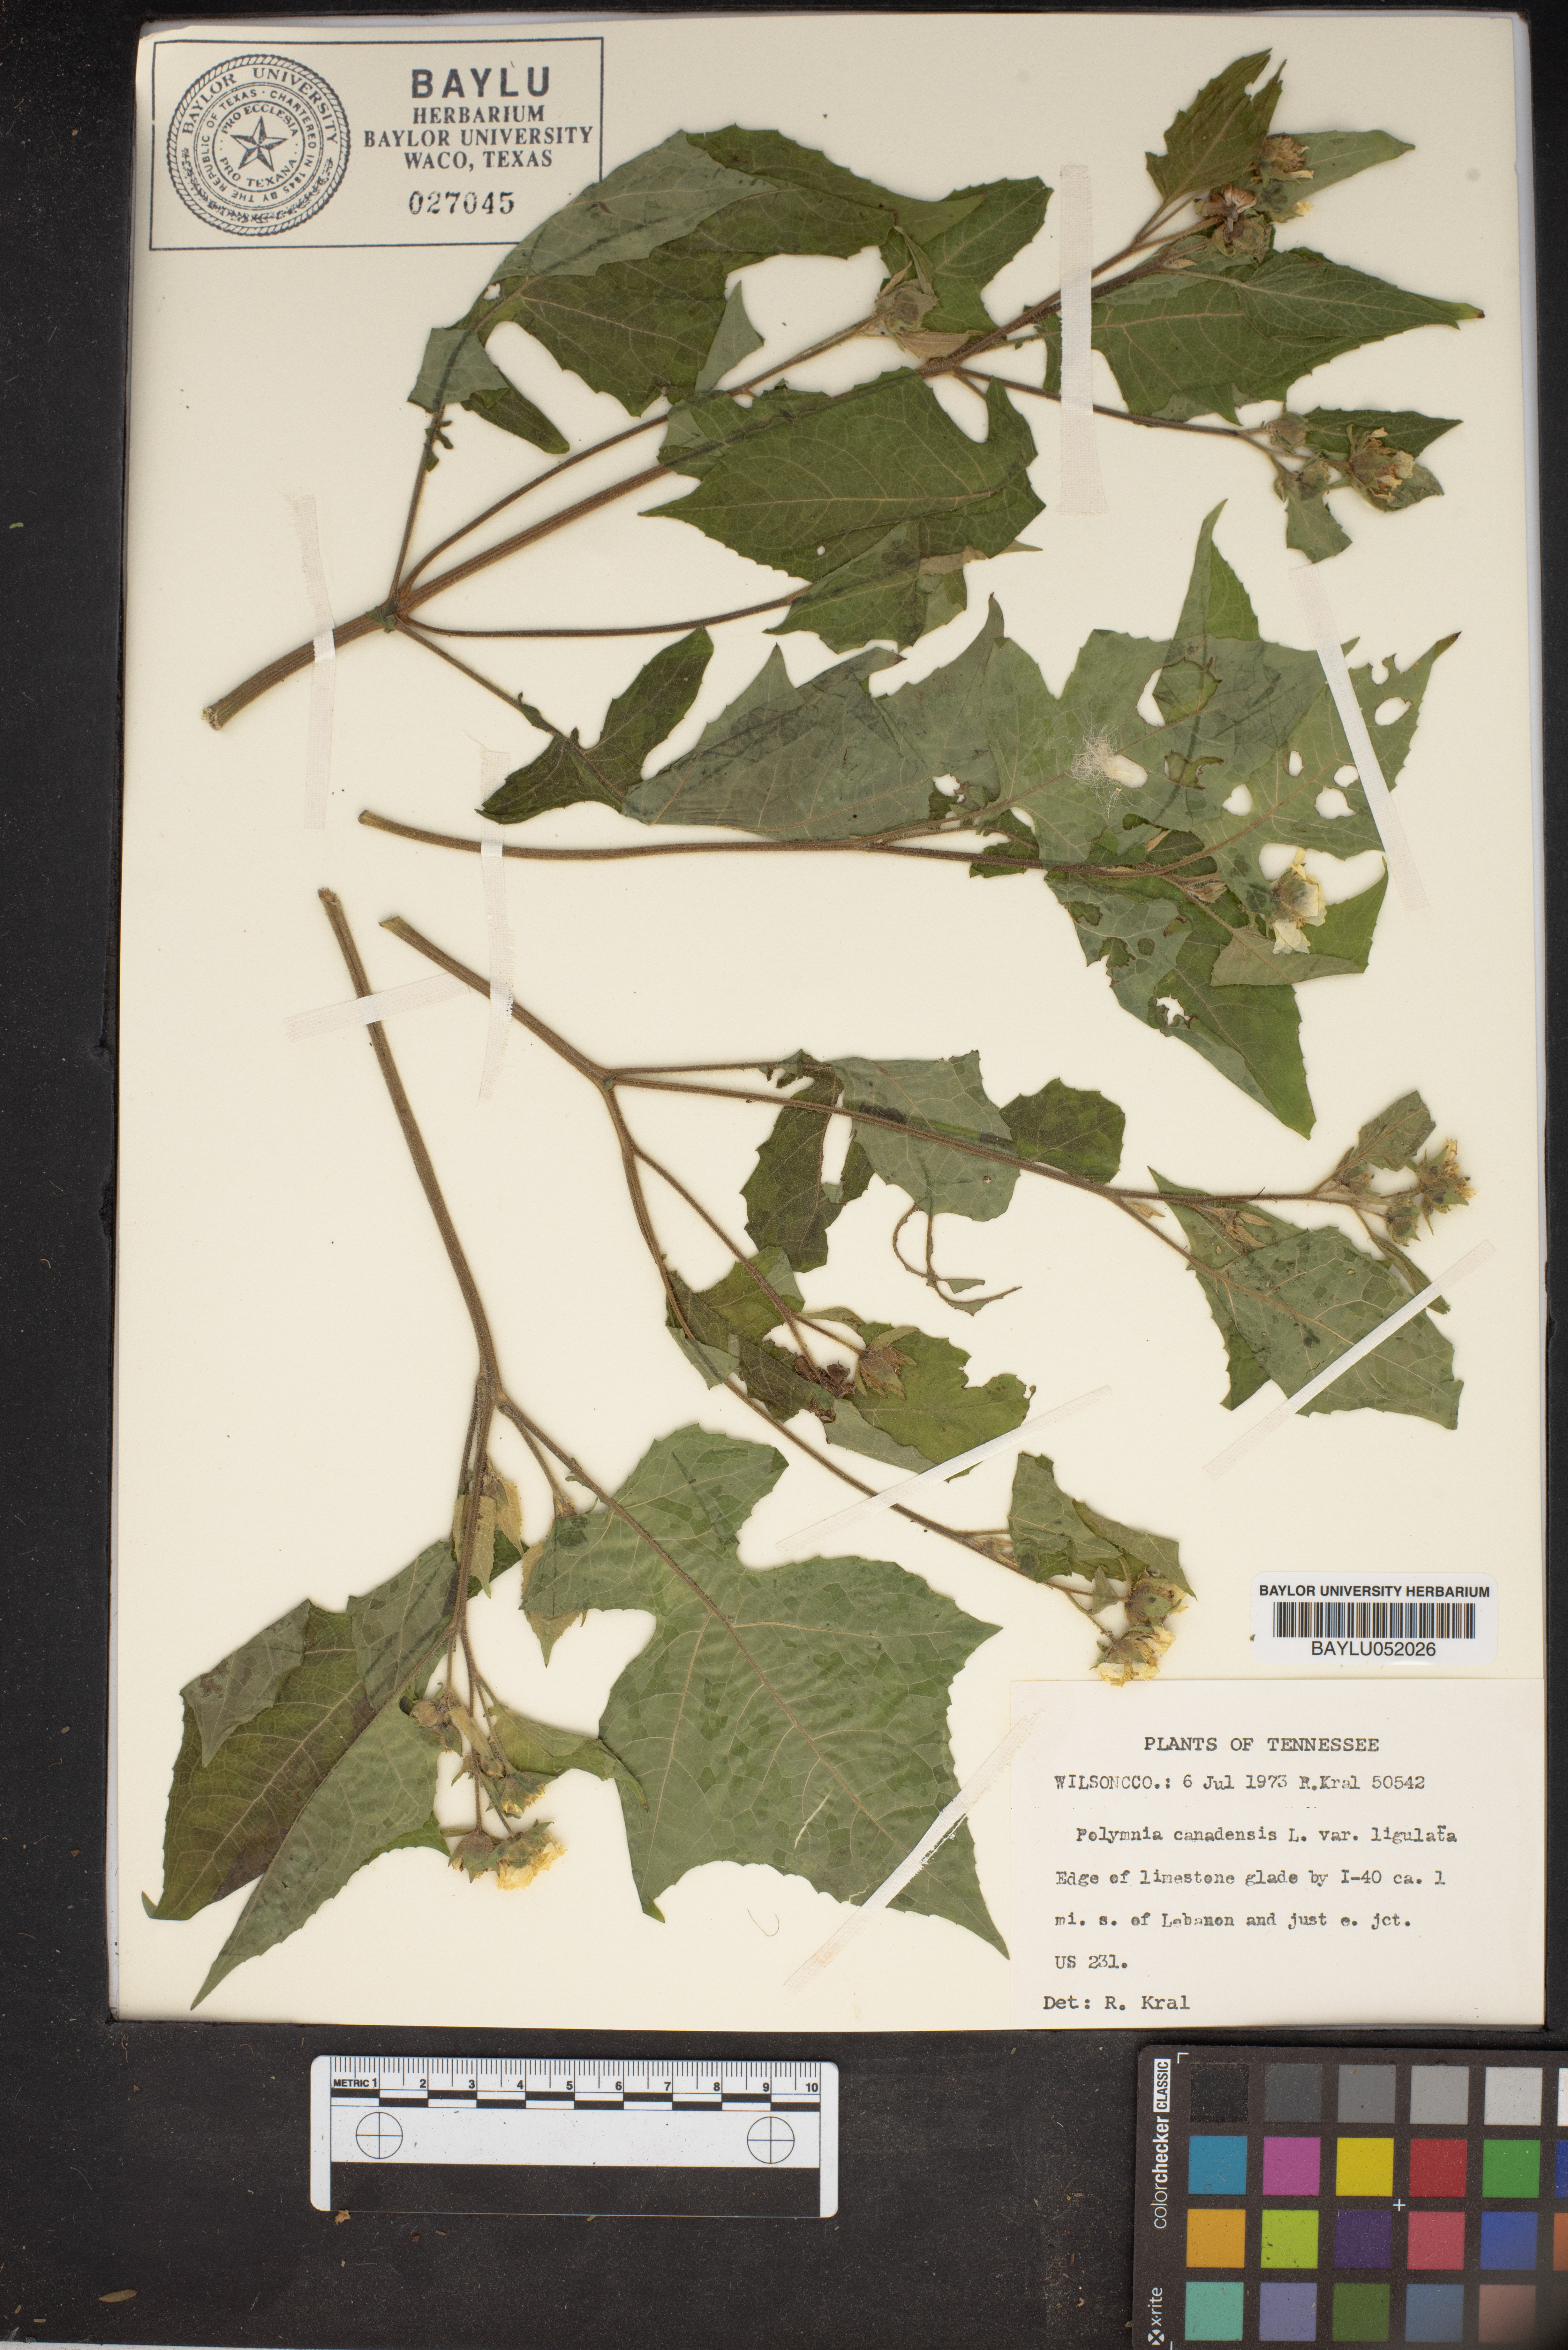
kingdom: Plantae
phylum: Tracheophyta
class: Magnoliopsida
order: Asterales
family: Asteraceae
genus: Polymnia
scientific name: Polymnia canadensis
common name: Pale-flowered leafcup
